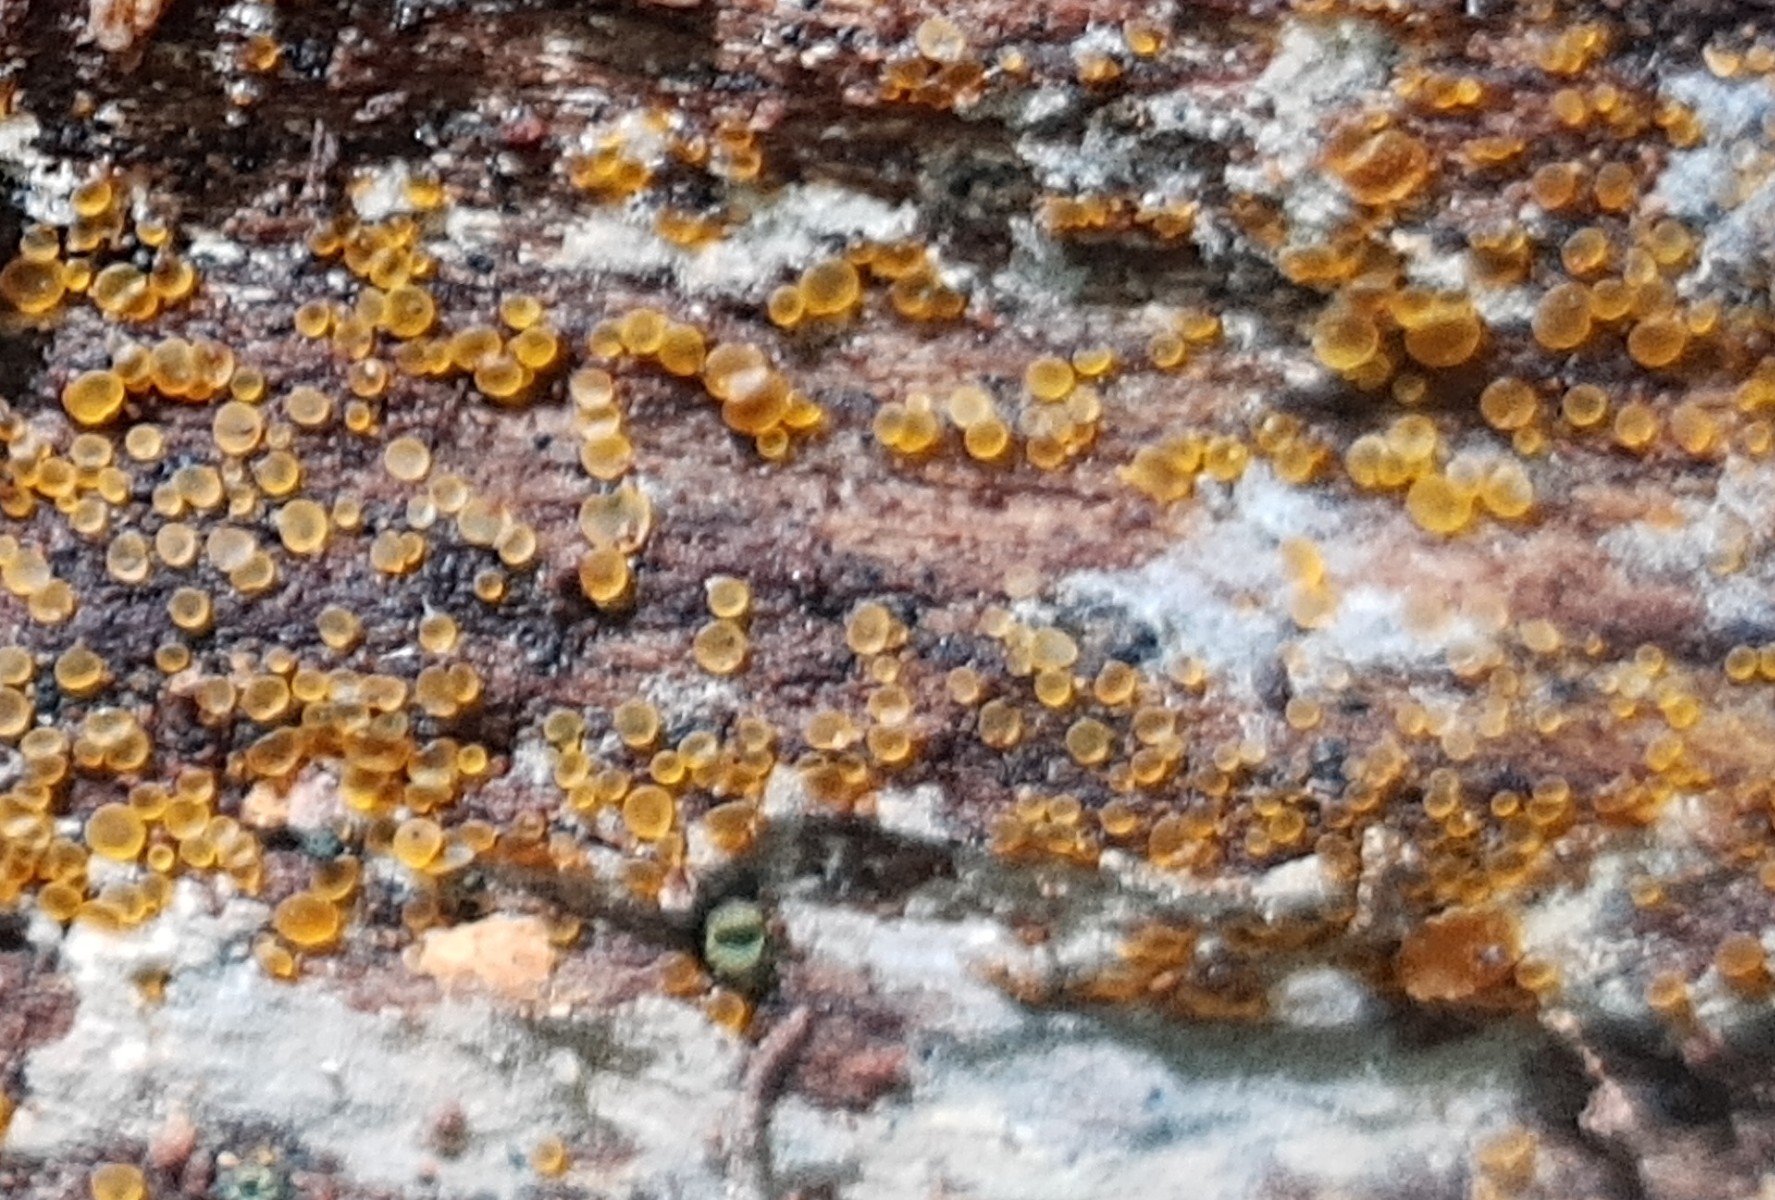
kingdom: Fungi
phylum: Ascomycota
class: Orbiliomycetes
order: Orbiliales
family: Orbiliaceae
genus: Orbilia
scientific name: Orbilia xanthostigma
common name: krumsporet voksskive
